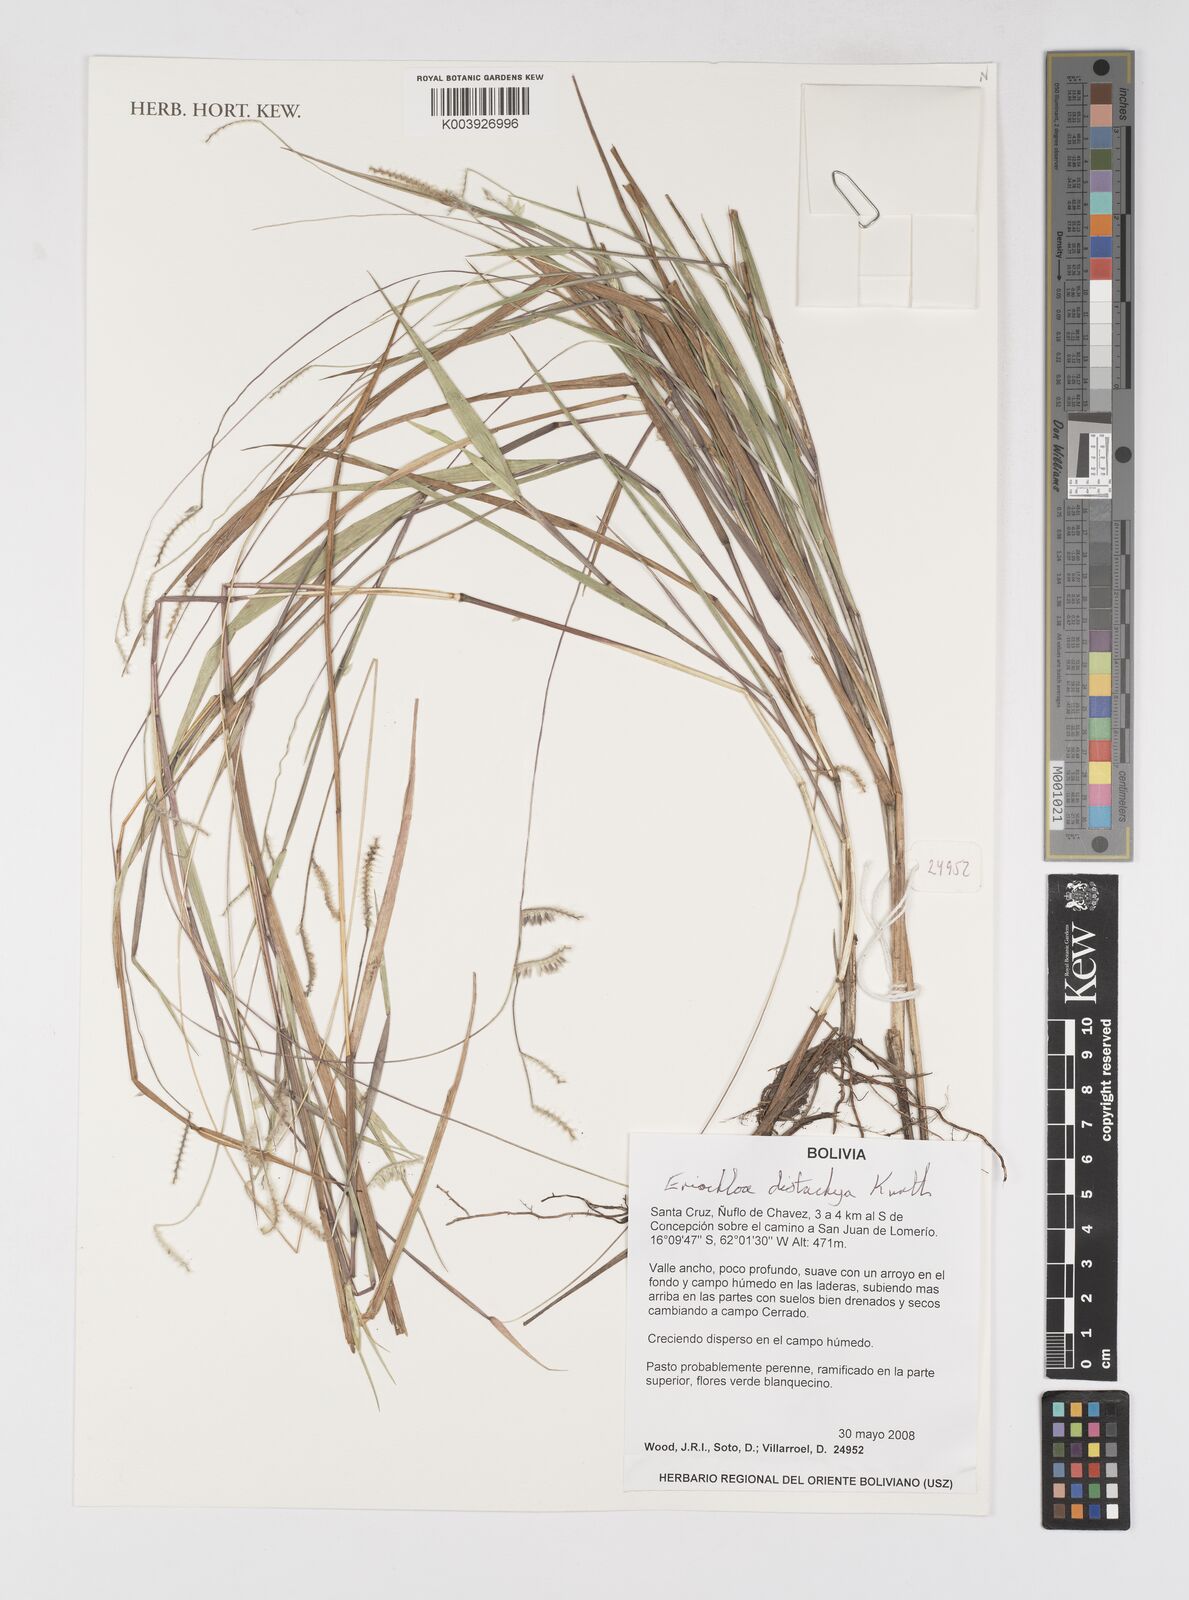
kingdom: Plantae
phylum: Tracheophyta
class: Liliopsida
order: Poales
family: Poaceae
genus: Eriochloa
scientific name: Eriochloa distachya
